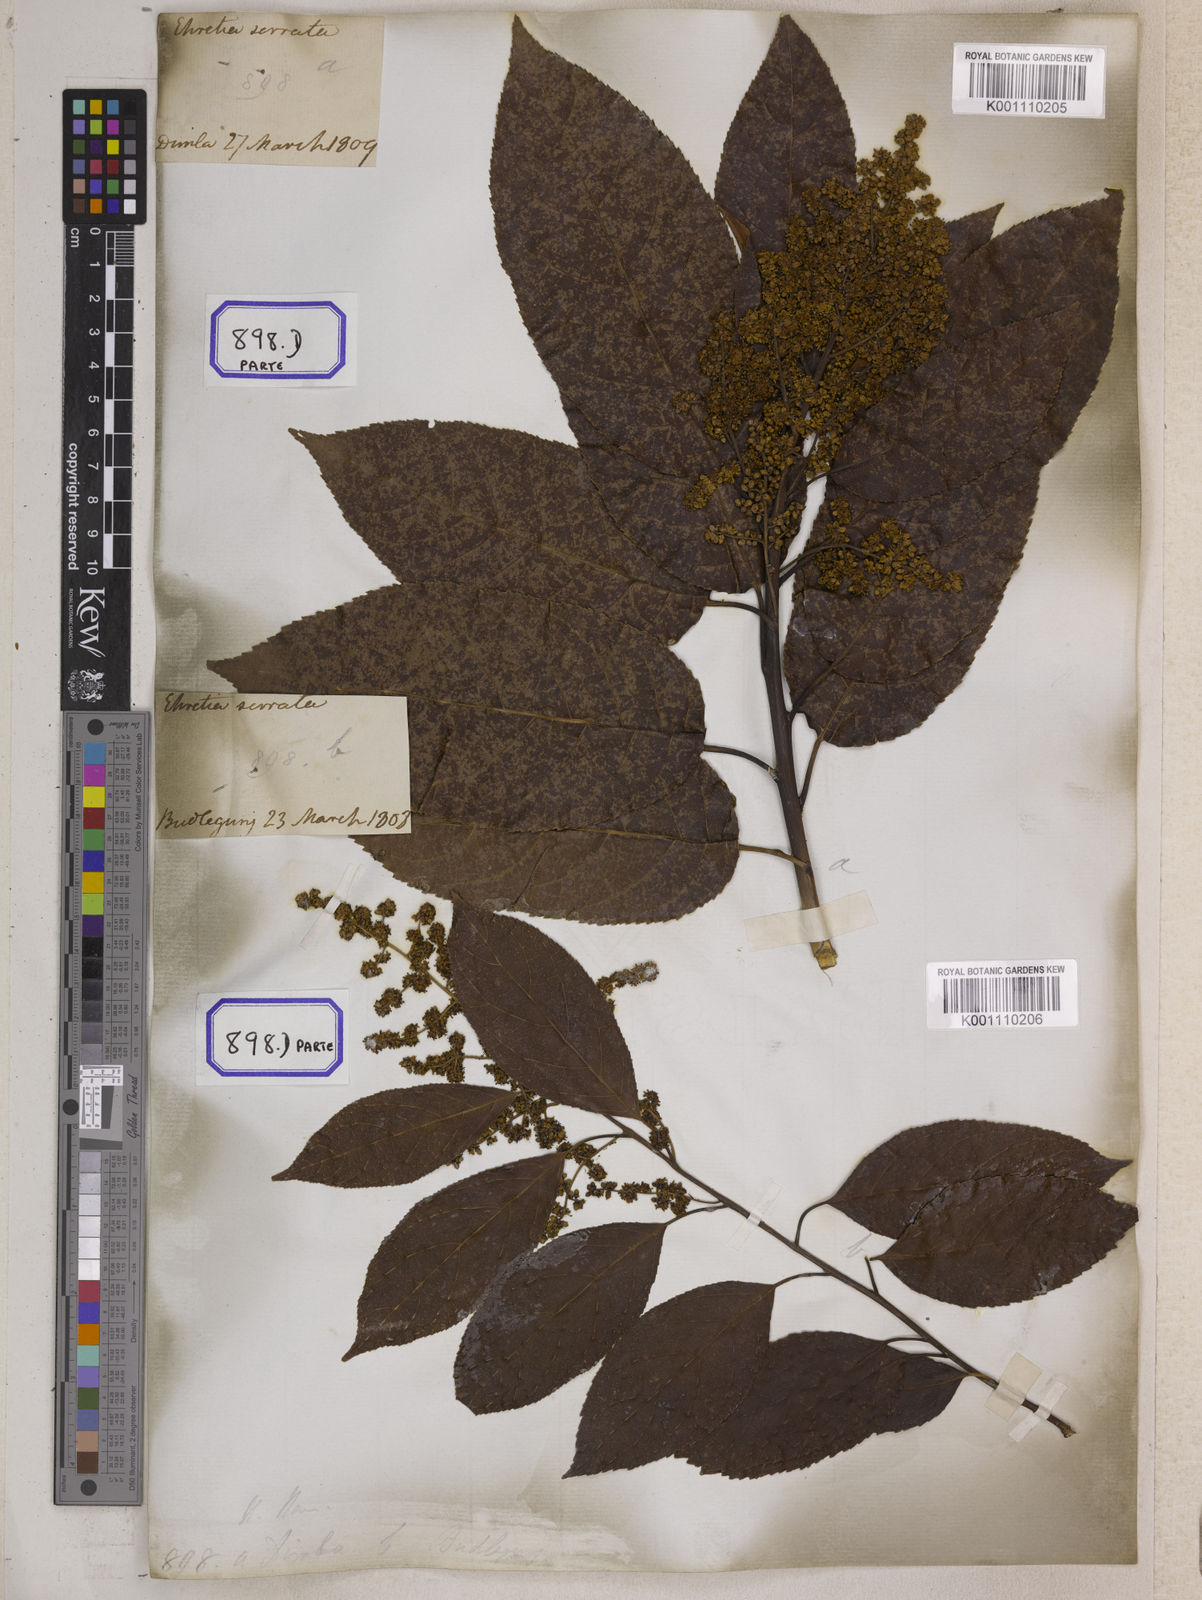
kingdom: Plantae
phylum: Tracheophyta
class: Magnoliopsida
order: Boraginales
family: Ehretiaceae
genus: Ehretia
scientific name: Ehretia acuminata
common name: Kodo wood
